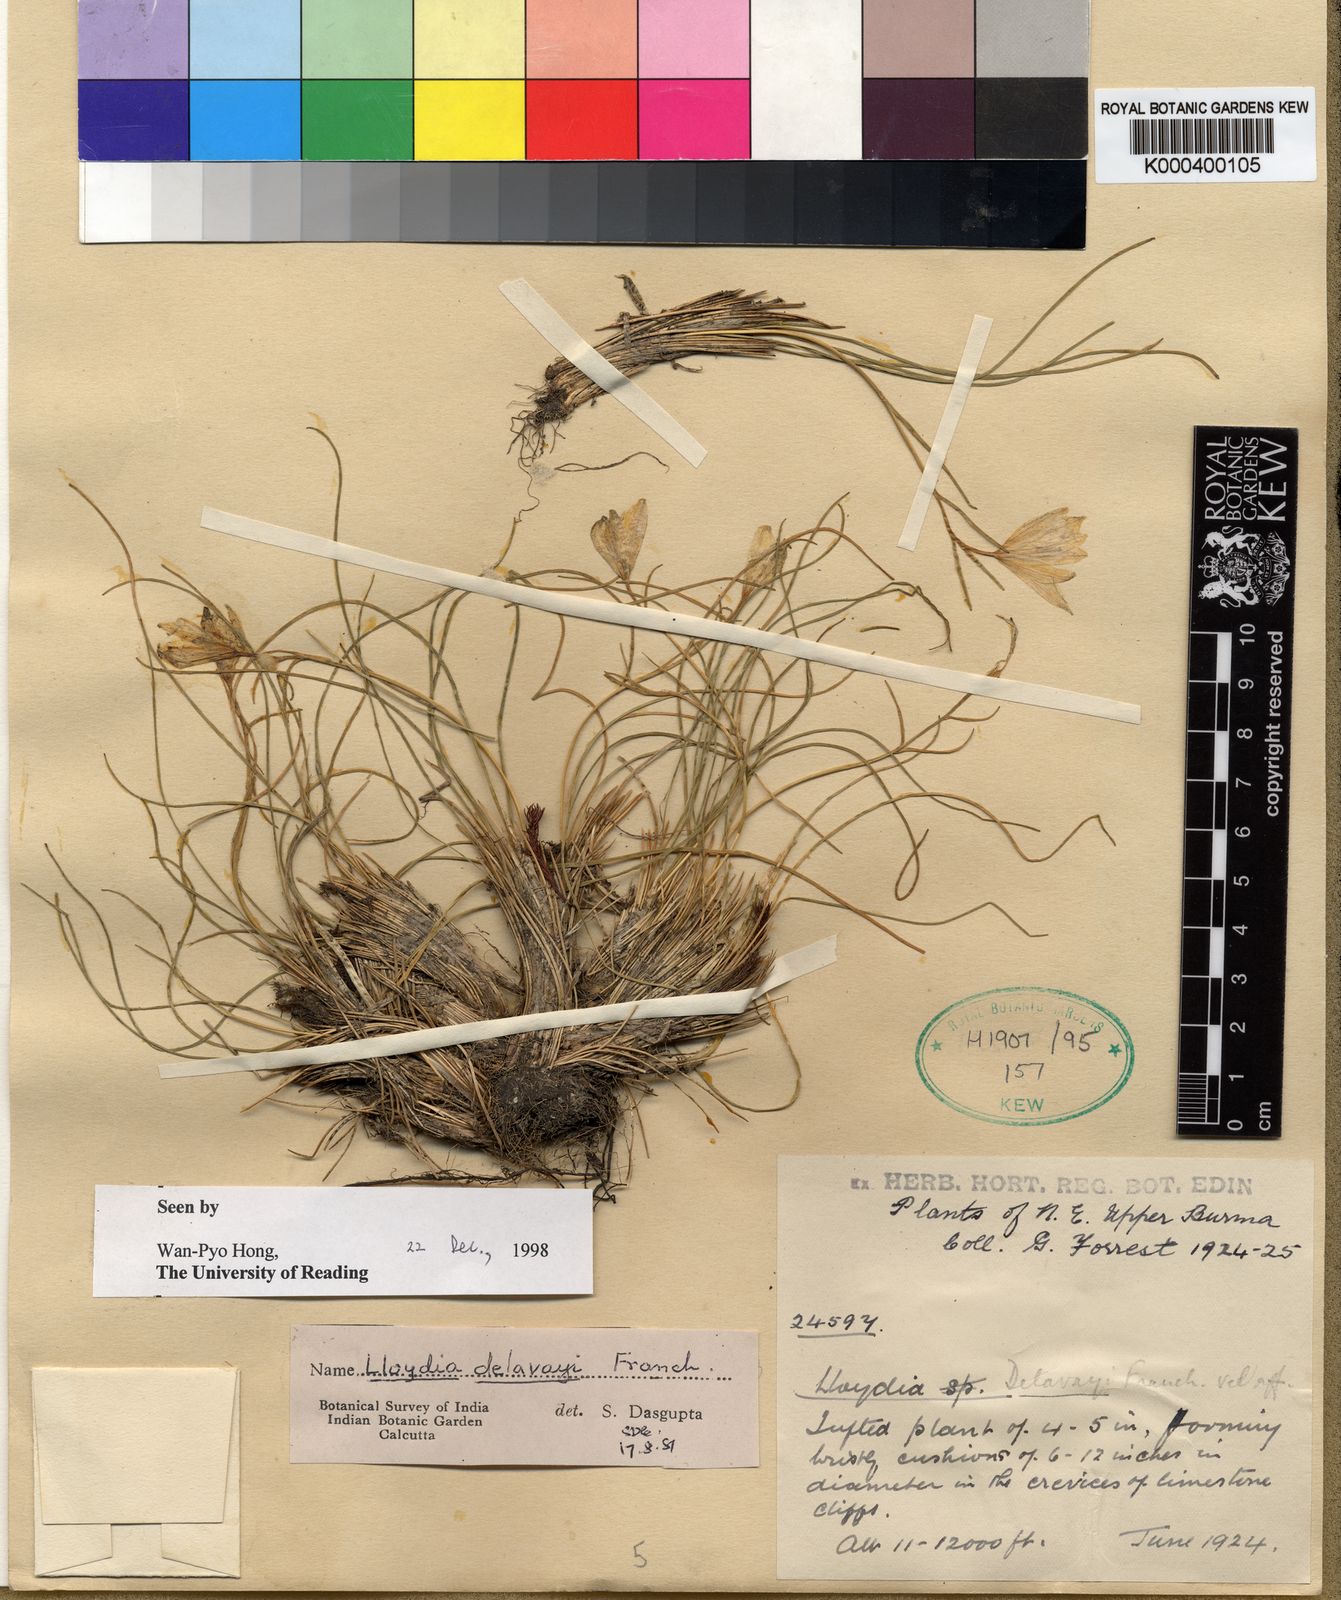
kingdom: Plantae
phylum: Tracheophyta
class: Liliopsida
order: Liliales
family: Liliaceae
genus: Gagea
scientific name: Gagea delavayi
